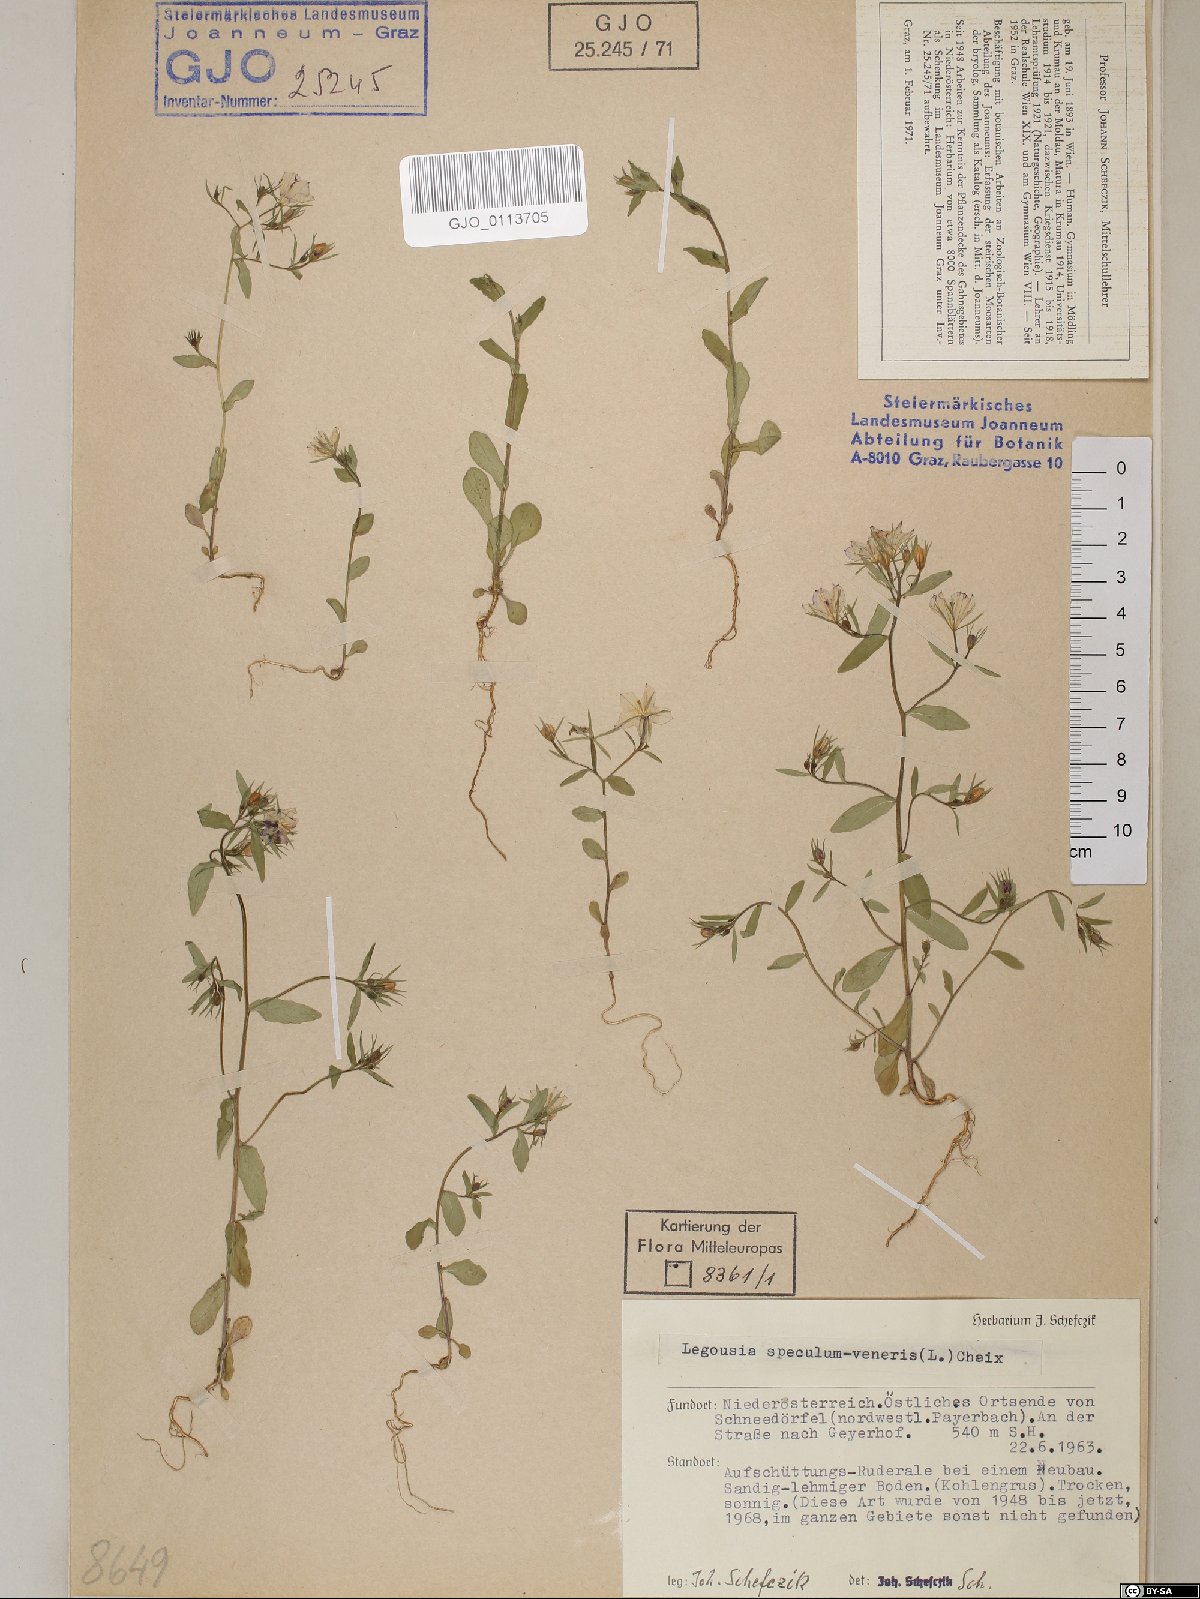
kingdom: Plantae
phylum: Tracheophyta
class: Magnoliopsida
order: Asterales
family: Campanulaceae
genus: Legousia
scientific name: Legousia speculum-veneris
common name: Large venus's-looking-glass
